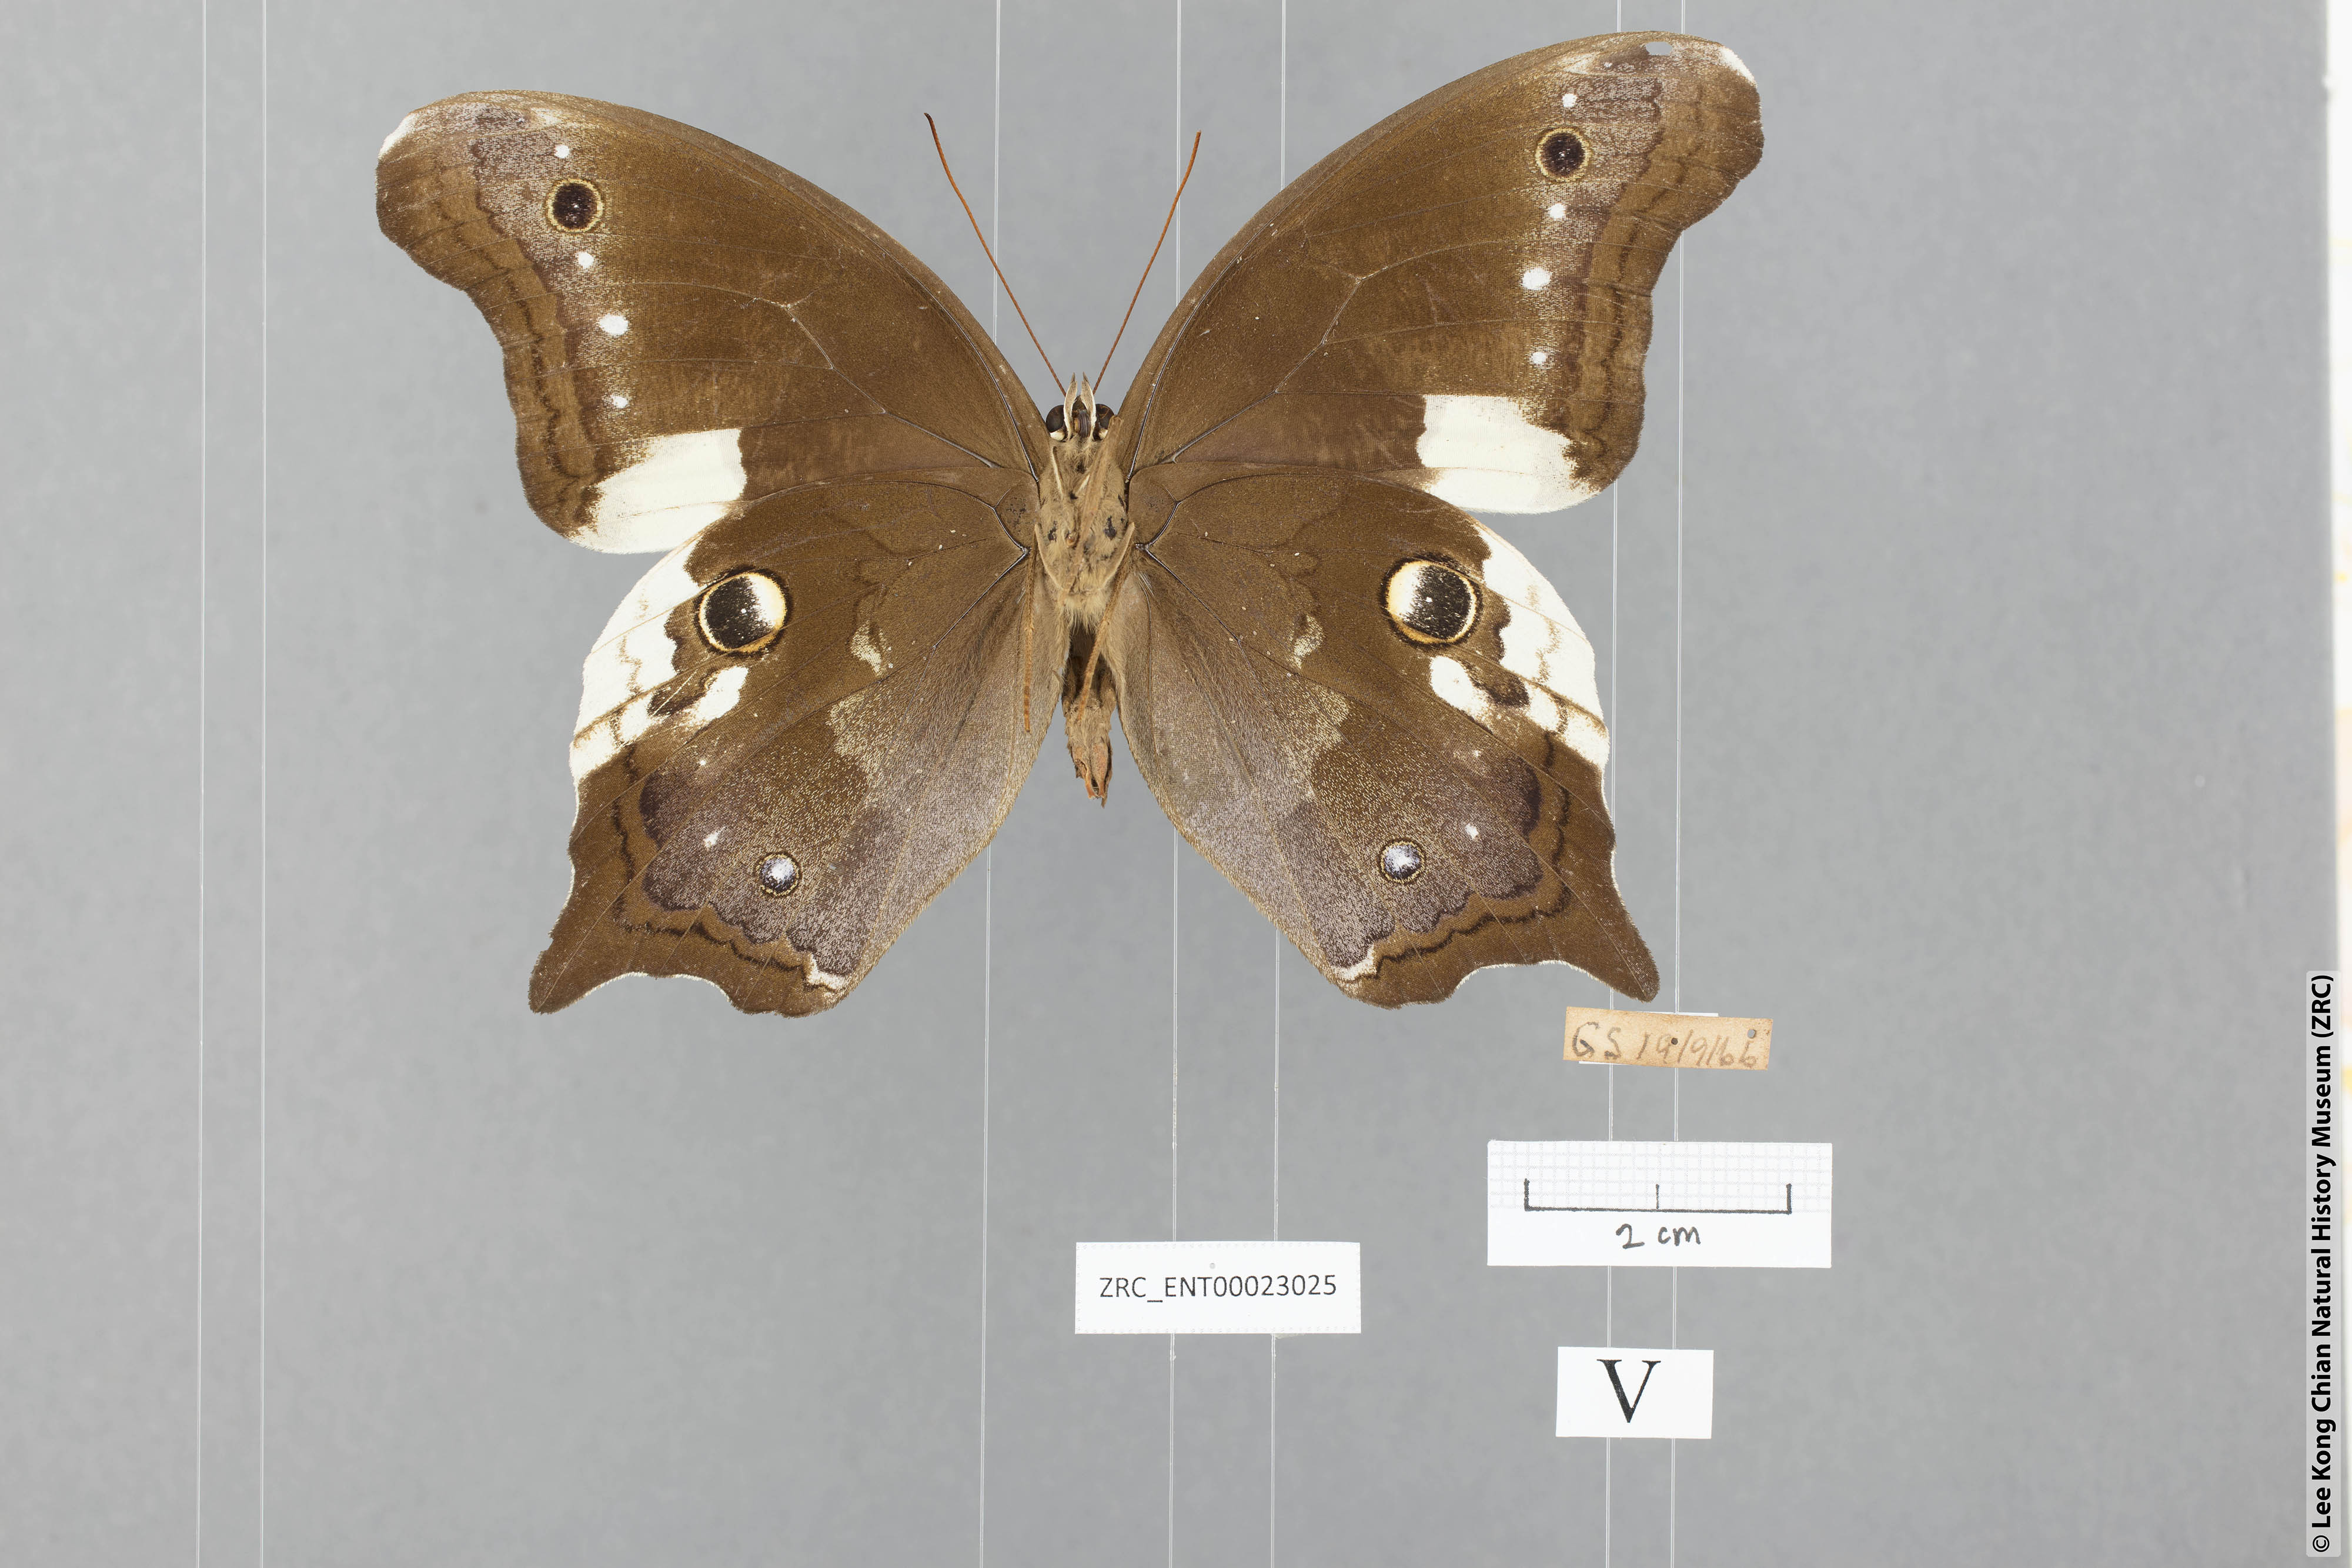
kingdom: Animalia
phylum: Arthropoda
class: Insecta
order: Lepidoptera
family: Nymphalidae
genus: Neorina
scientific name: Neorina lowii
